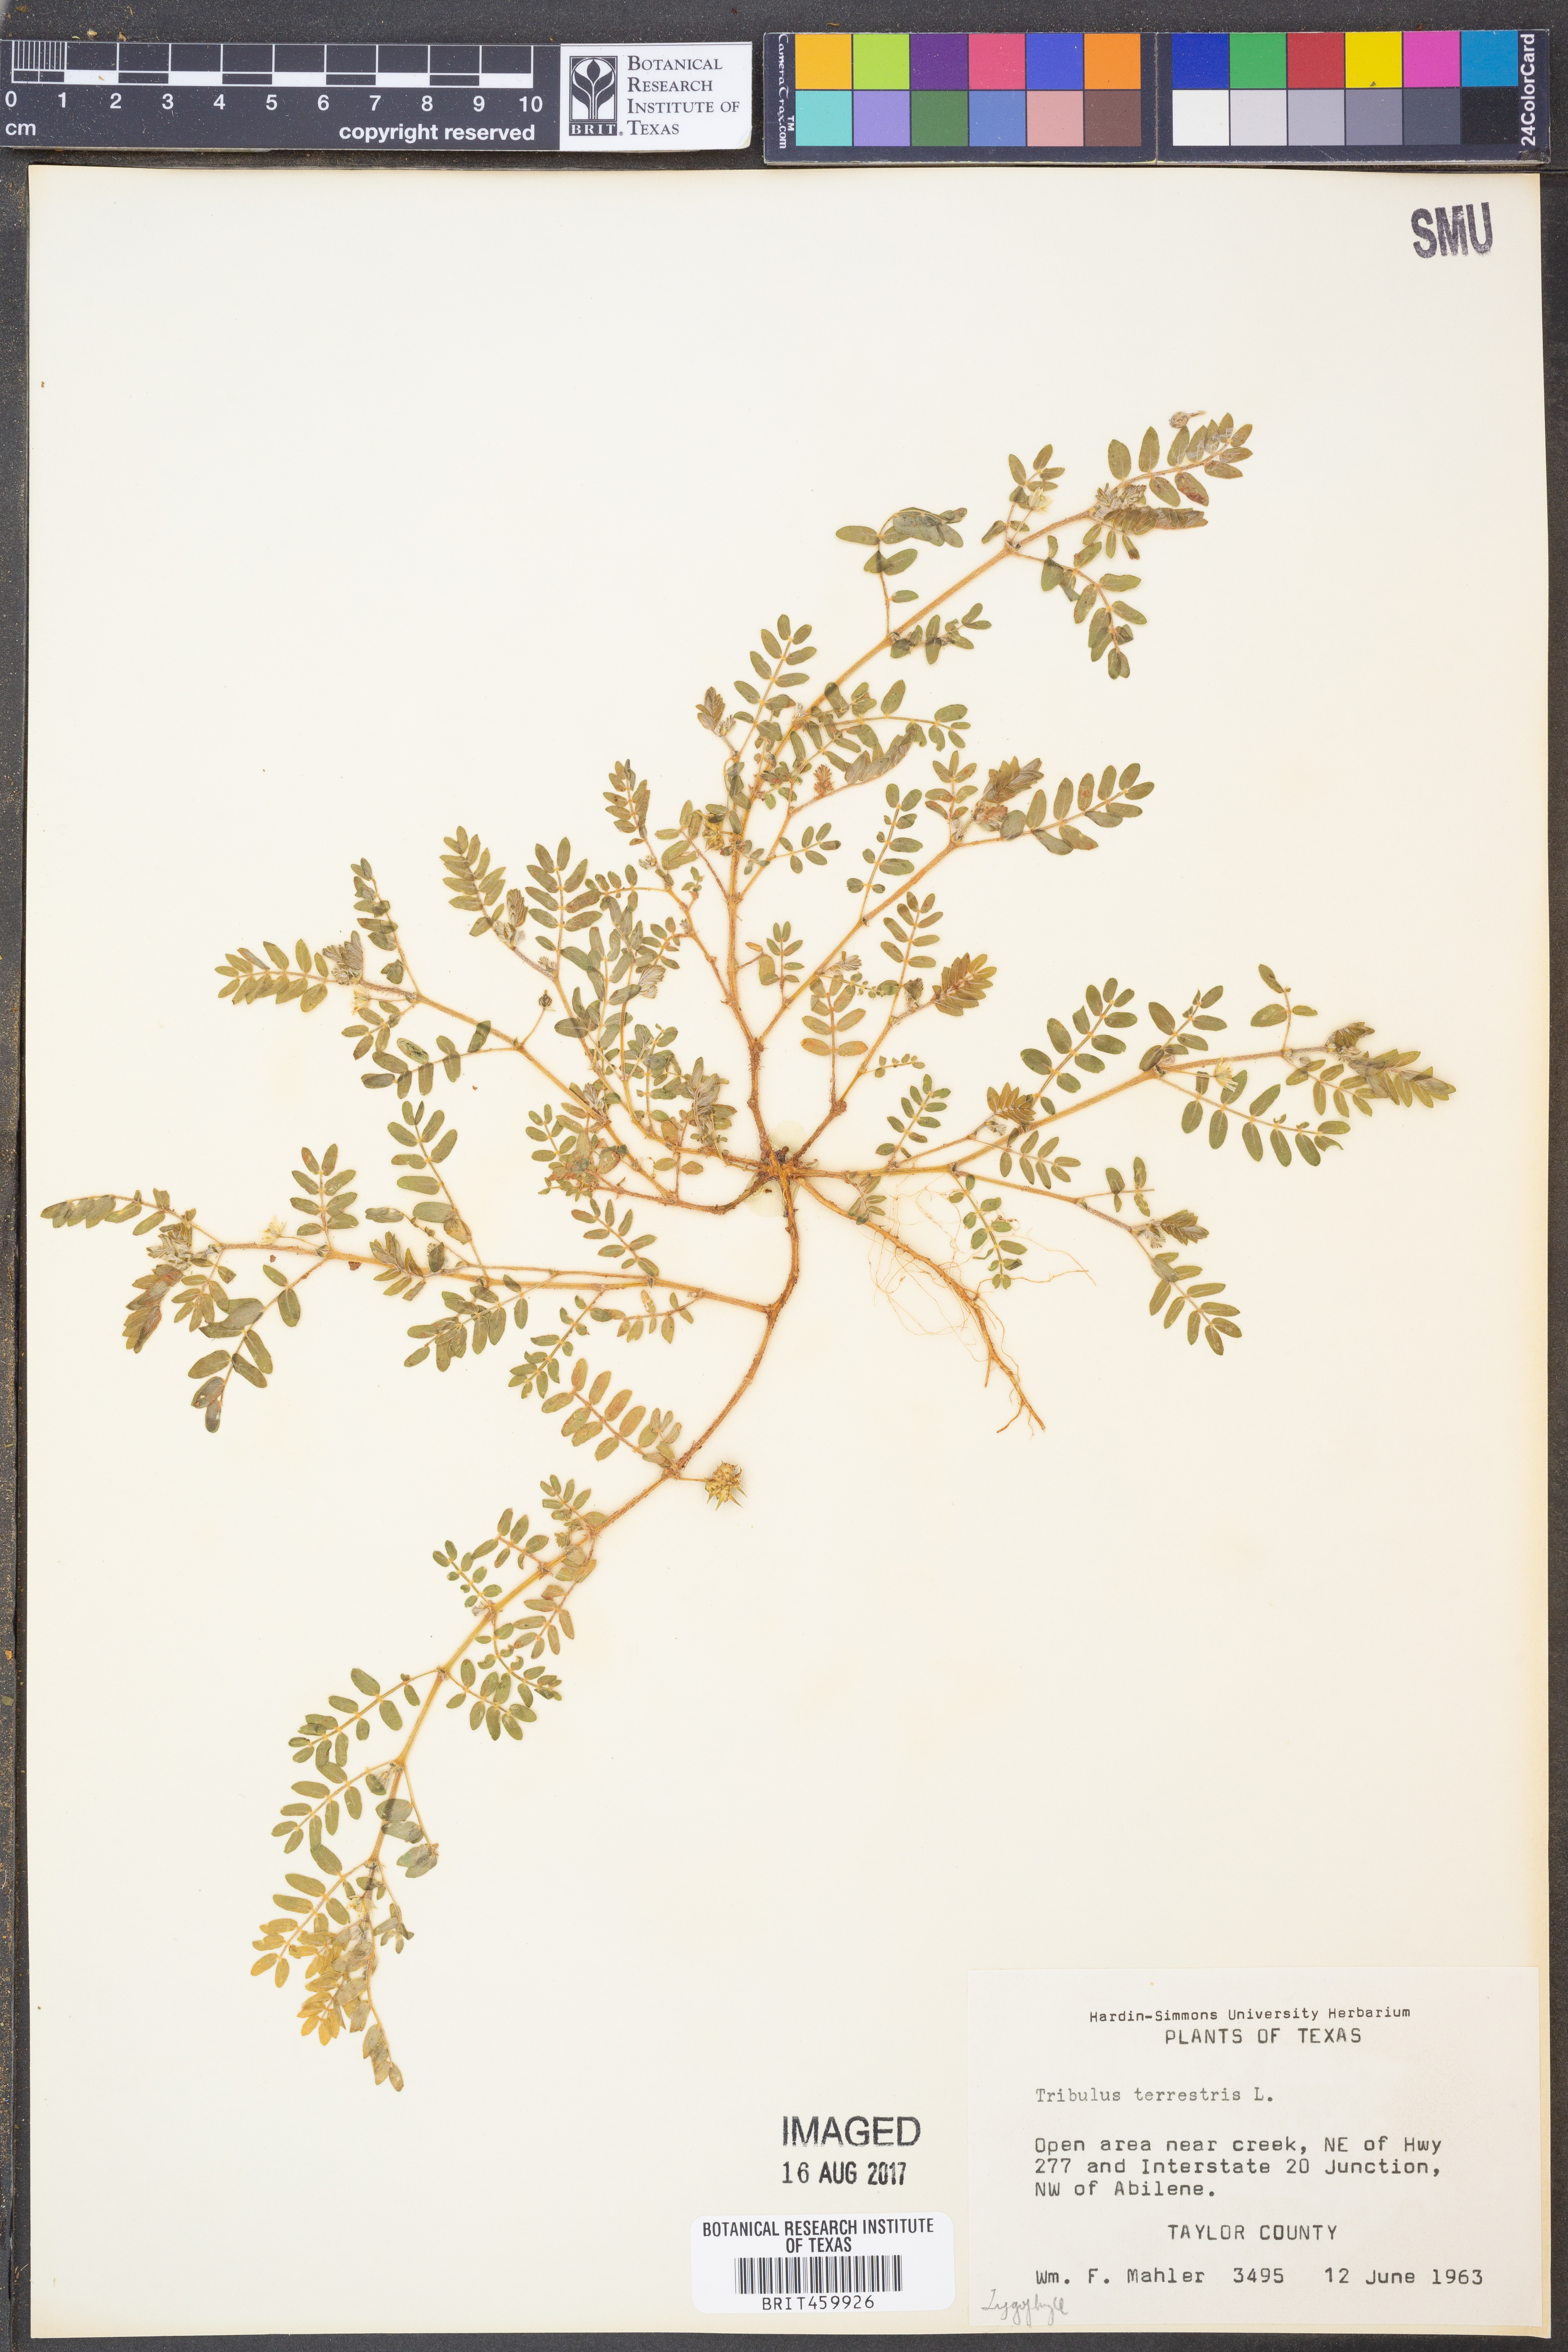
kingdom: Plantae
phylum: Tracheophyta
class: Magnoliopsida
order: Zygophyllales
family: Zygophyllaceae
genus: Tribulus
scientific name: Tribulus terrestris
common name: Puncturevine
